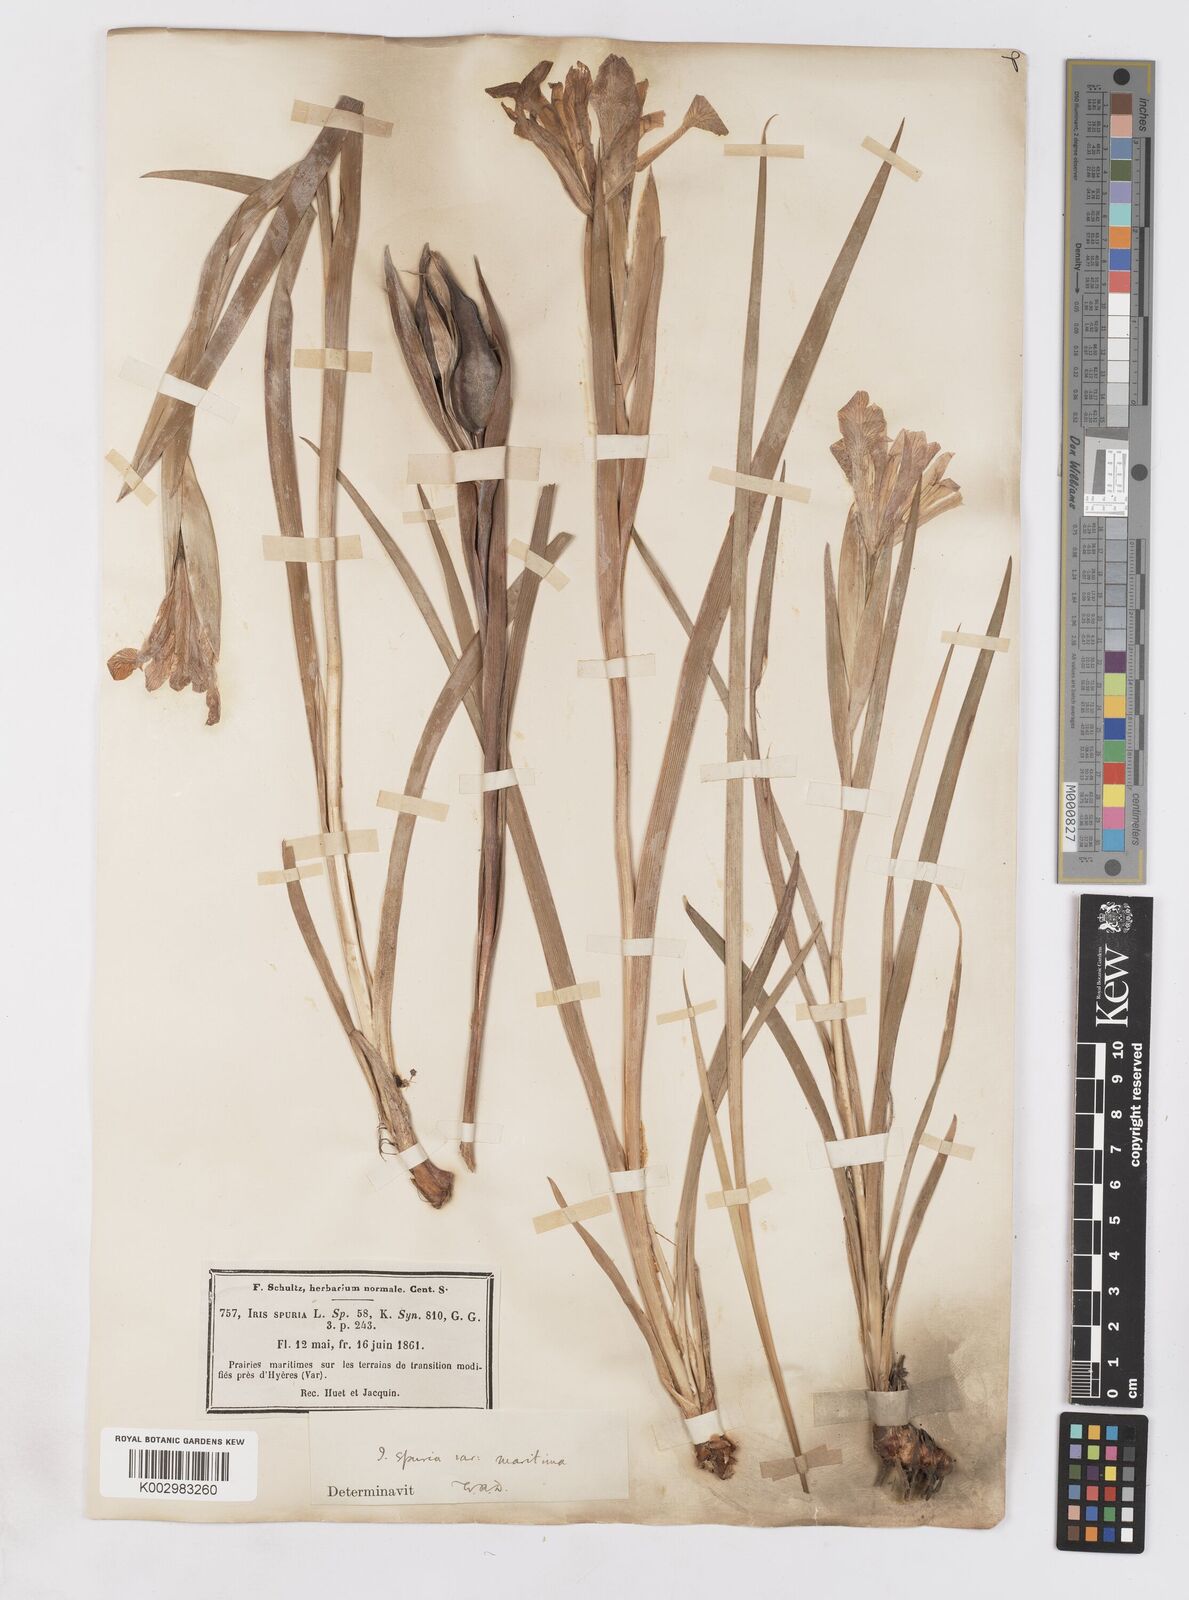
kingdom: Plantae
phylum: Tracheophyta
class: Liliopsida
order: Asparagales
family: Iridaceae
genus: Iris
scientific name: Iris spuria
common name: Blue iris
